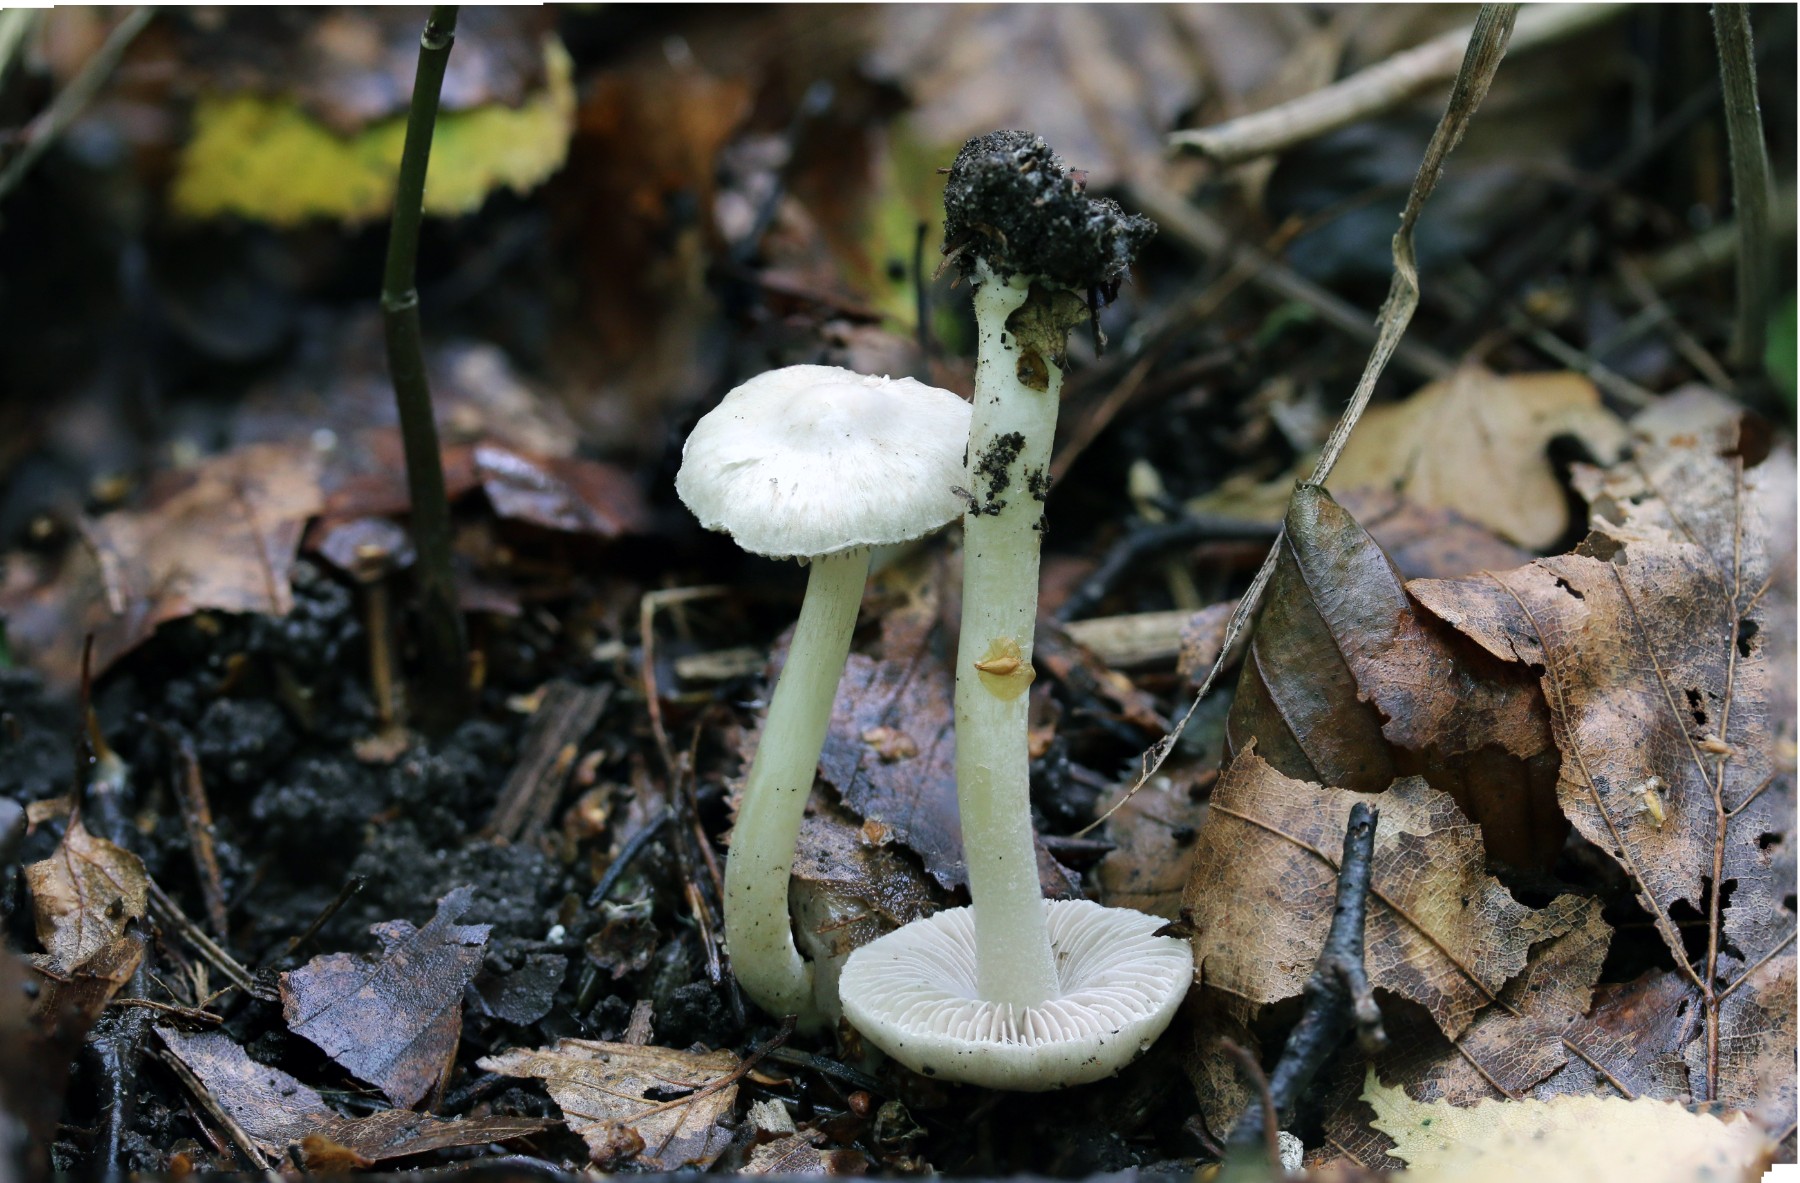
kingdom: Fungi
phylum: Basidiomycota
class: Agaricomycetes
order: Agaricales
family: Inocybaceae
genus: Inocybe
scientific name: Inocybe
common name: almindelig trævlhat
